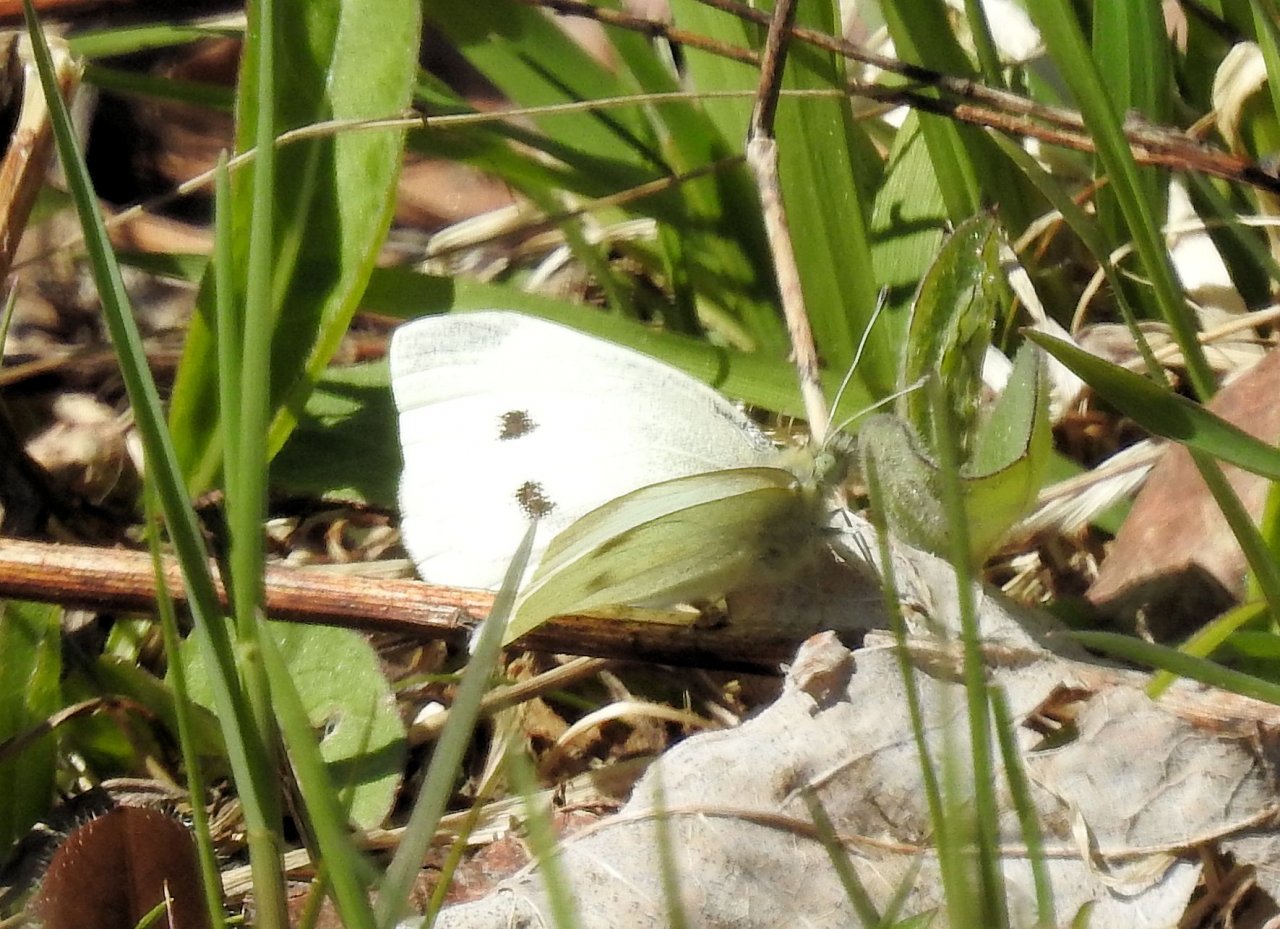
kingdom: Animalia
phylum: Arthropoda
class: Insecta
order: Lepidoptera
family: Pieridae
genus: Pieris
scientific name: Pieris rapae
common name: Cabbage White
